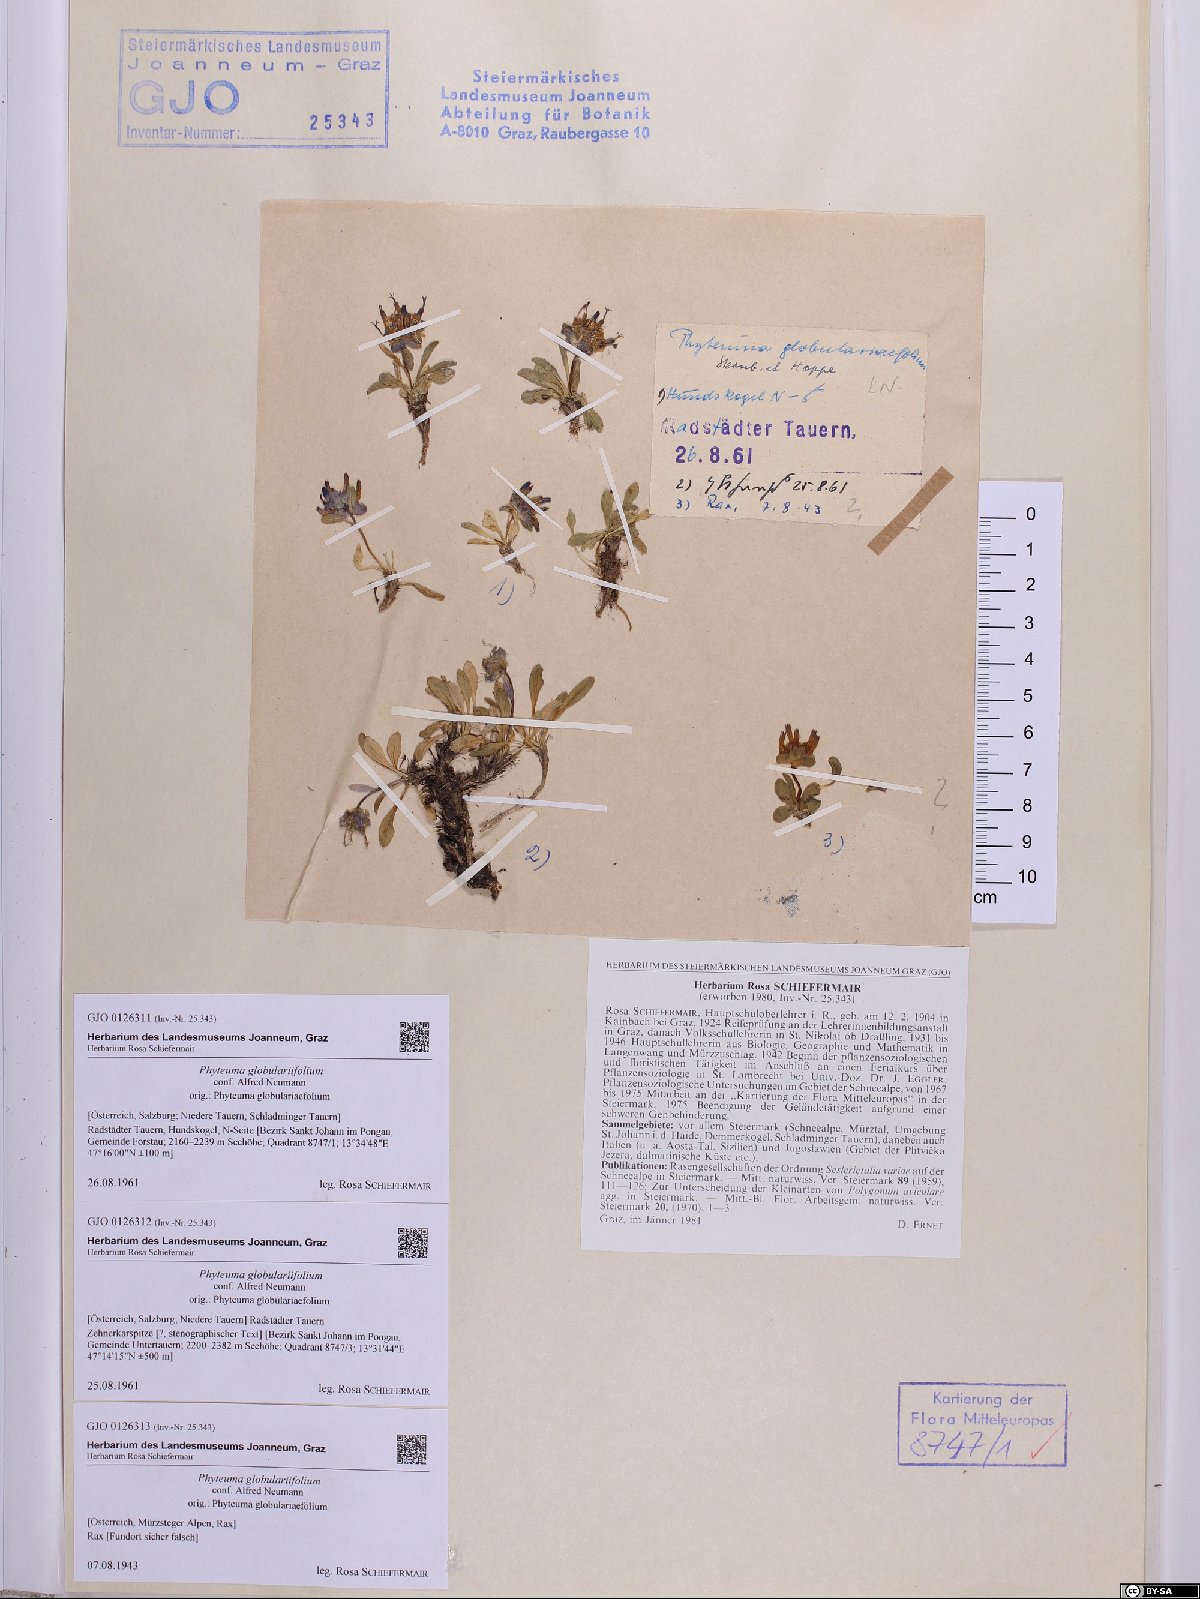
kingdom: Plantae
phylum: Tracheophyta
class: Magnoliopsida
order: Asterales
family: Campanulaceae
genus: Phyteuma
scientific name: Phyteuma globulariifolium
